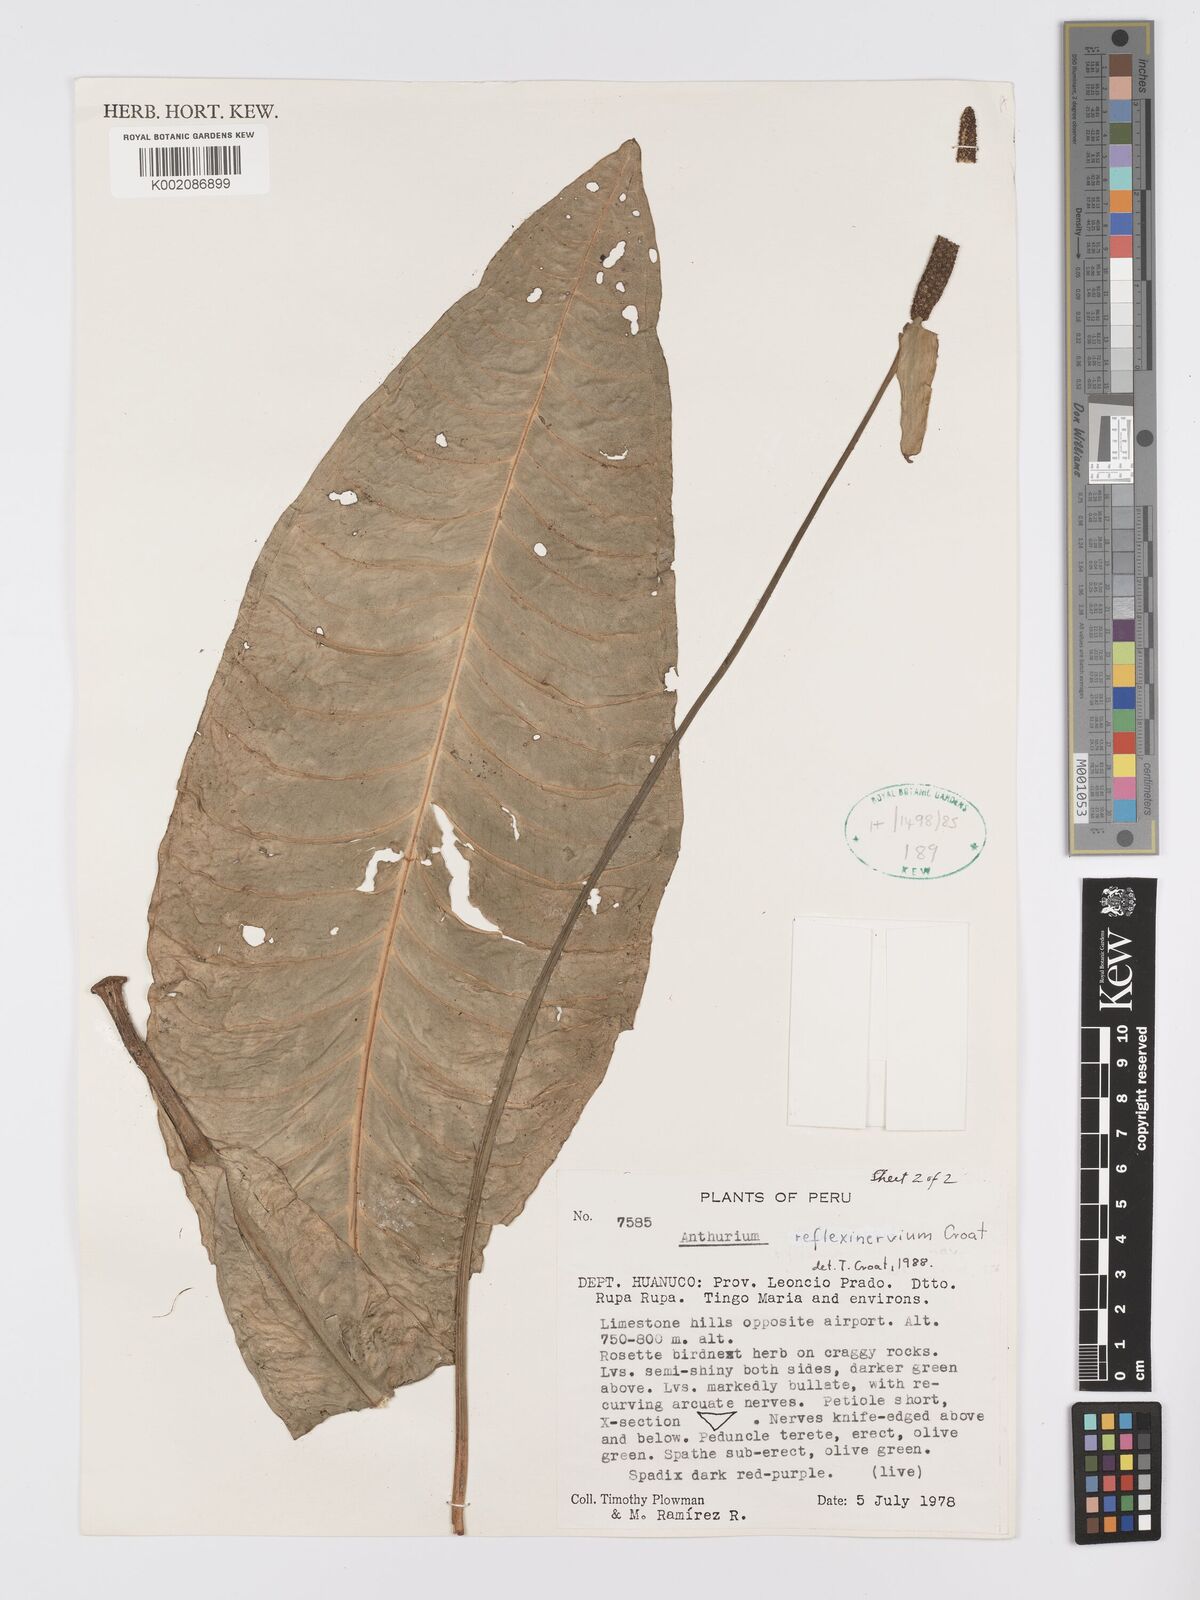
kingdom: Plantae
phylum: Tracheophyta
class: Liliopsida
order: Alismatales
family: Araceae
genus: Anthurium
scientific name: Anthurium reflexinervium
